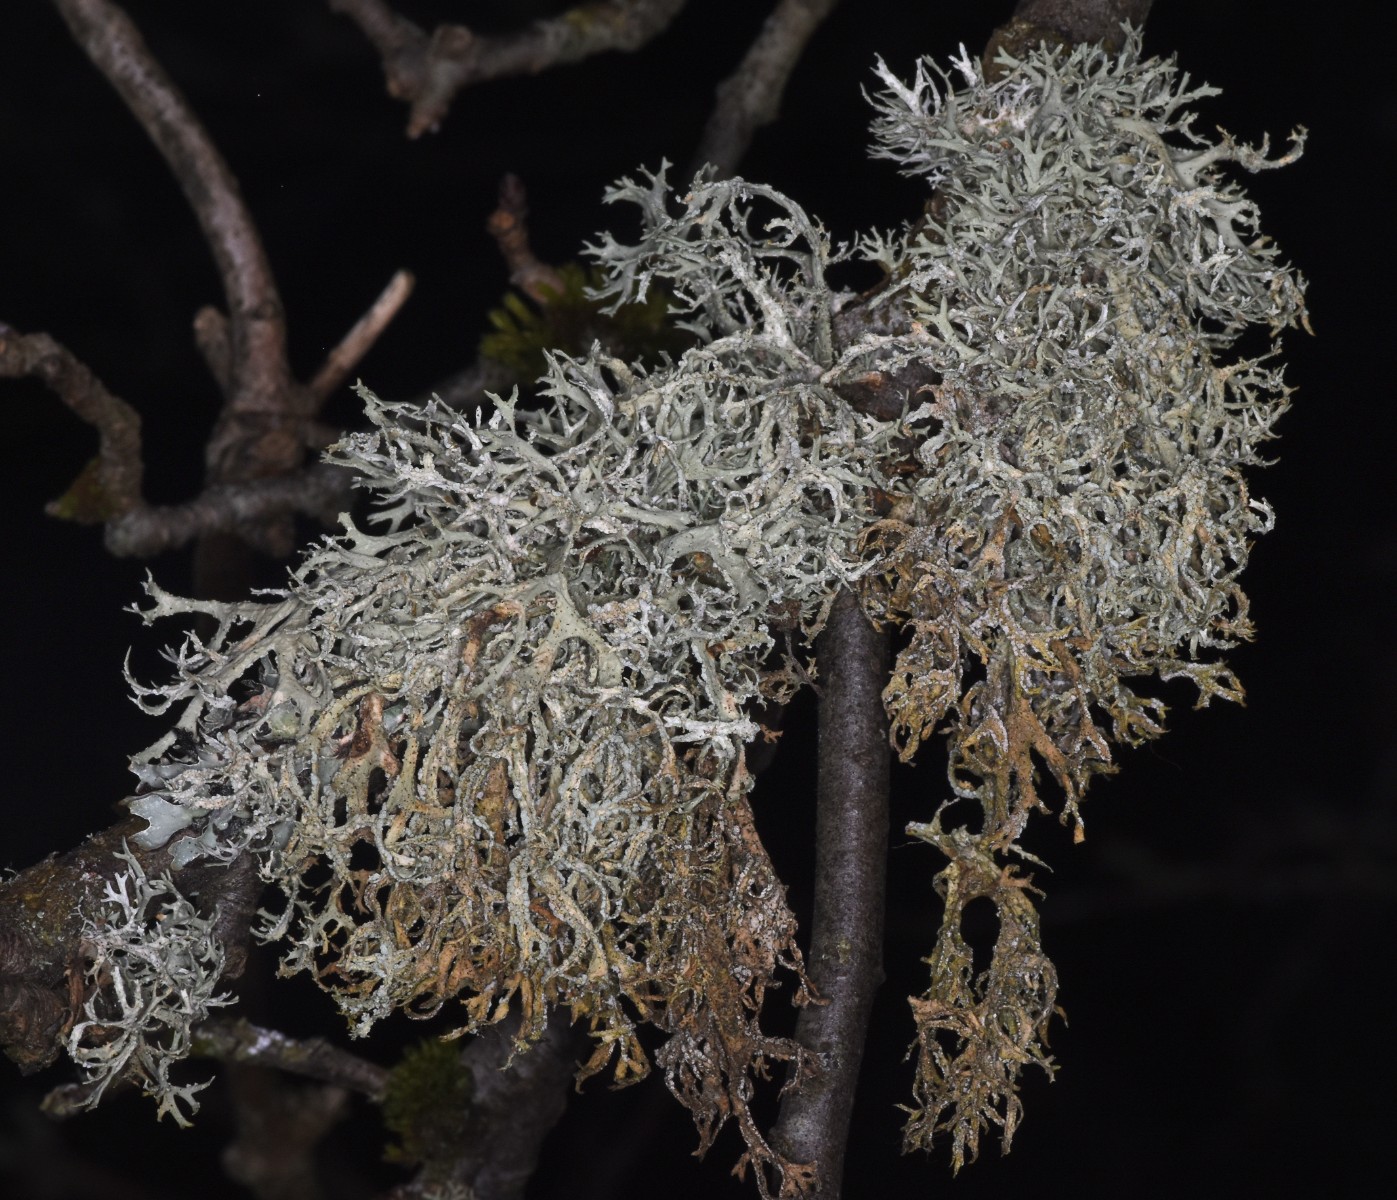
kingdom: Fungi
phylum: Ascomycota
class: Lecanoromycetes
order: Lecanorales
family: Parmeliaceae
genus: Evernia
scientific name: Evernia prunastri
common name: almindelig slåenlav
